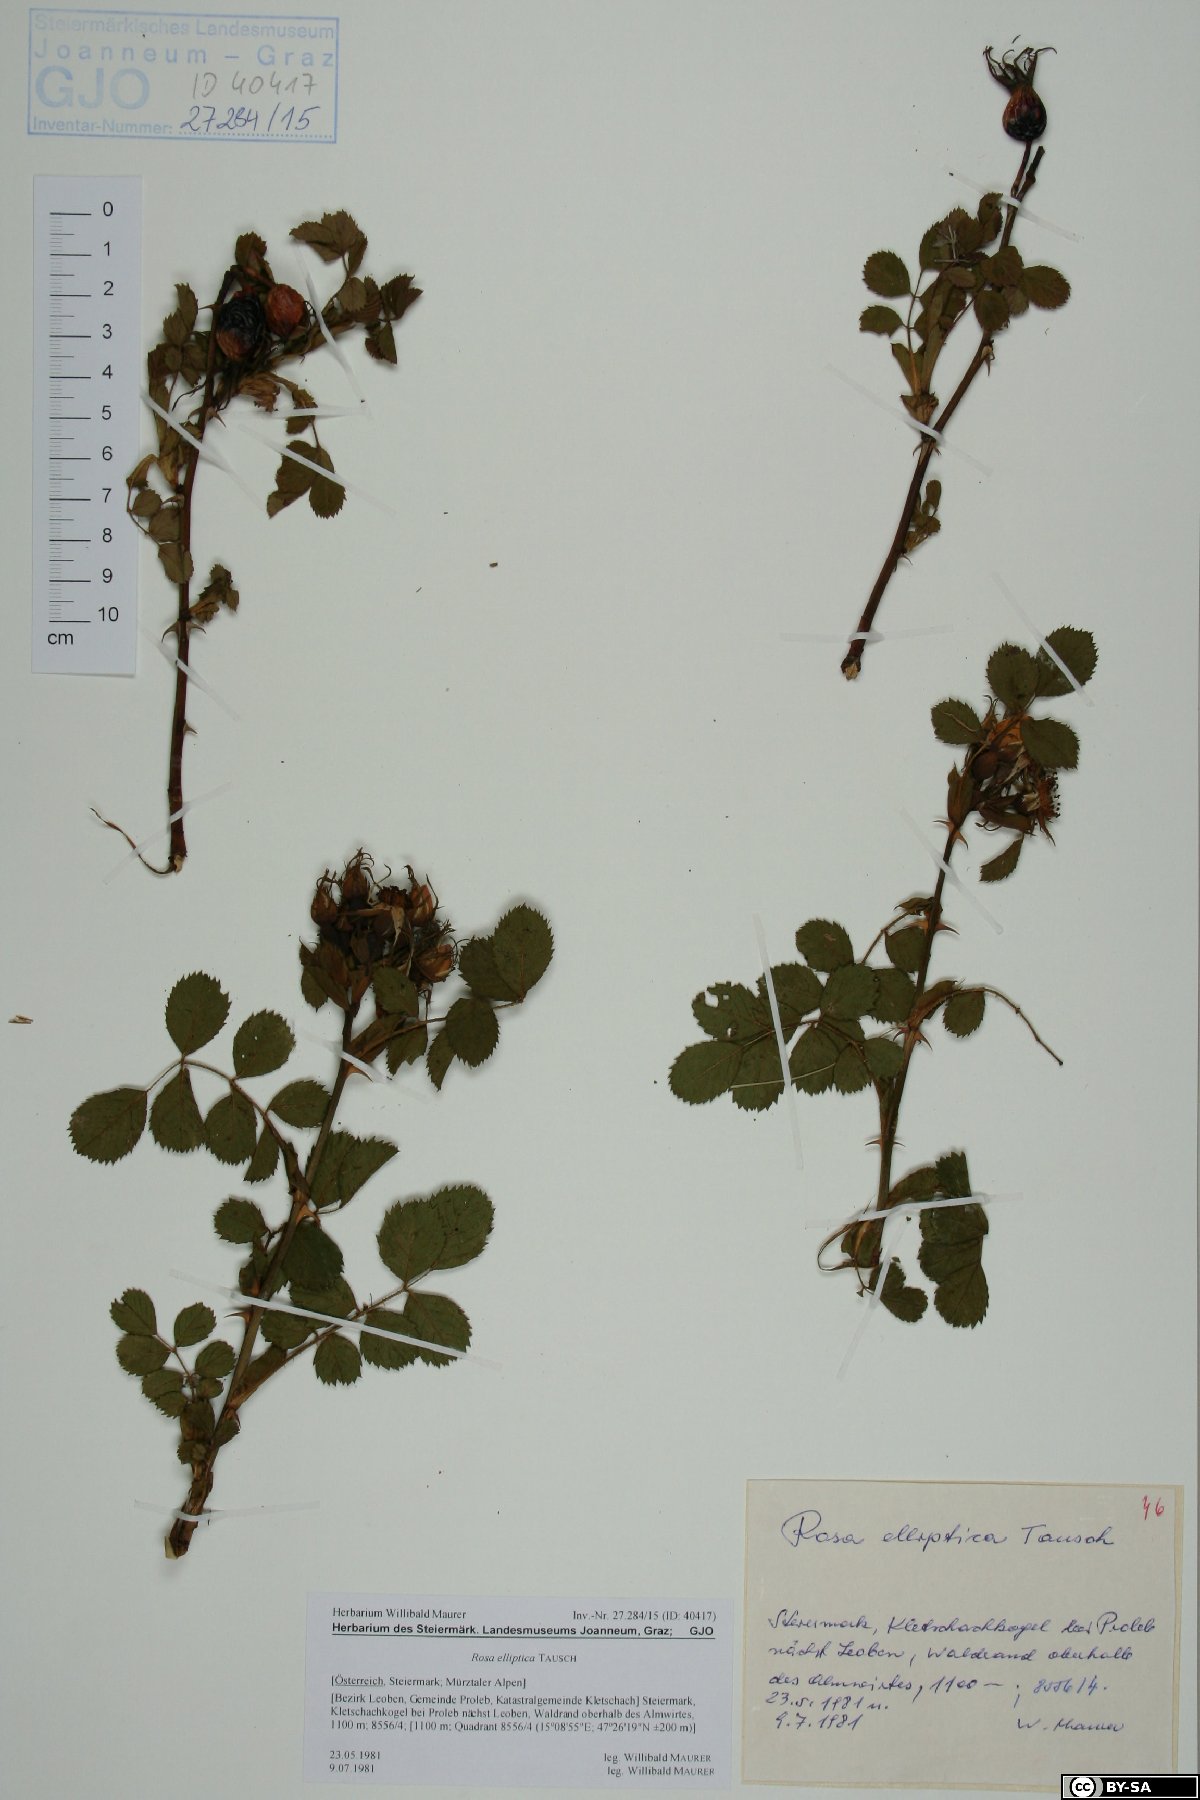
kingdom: Plantae
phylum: Tracheophyta
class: Magnoliopsida
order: Rosales
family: Rosaceae
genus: Rosa
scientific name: Rosa inodora
